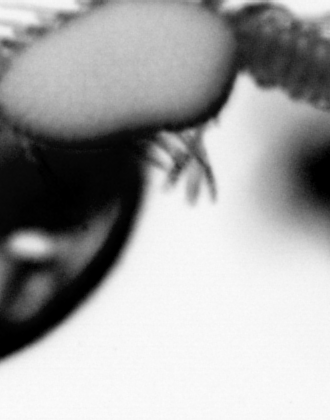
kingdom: Animalia
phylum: Annelida
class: Polychaeta
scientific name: Polychaeta
